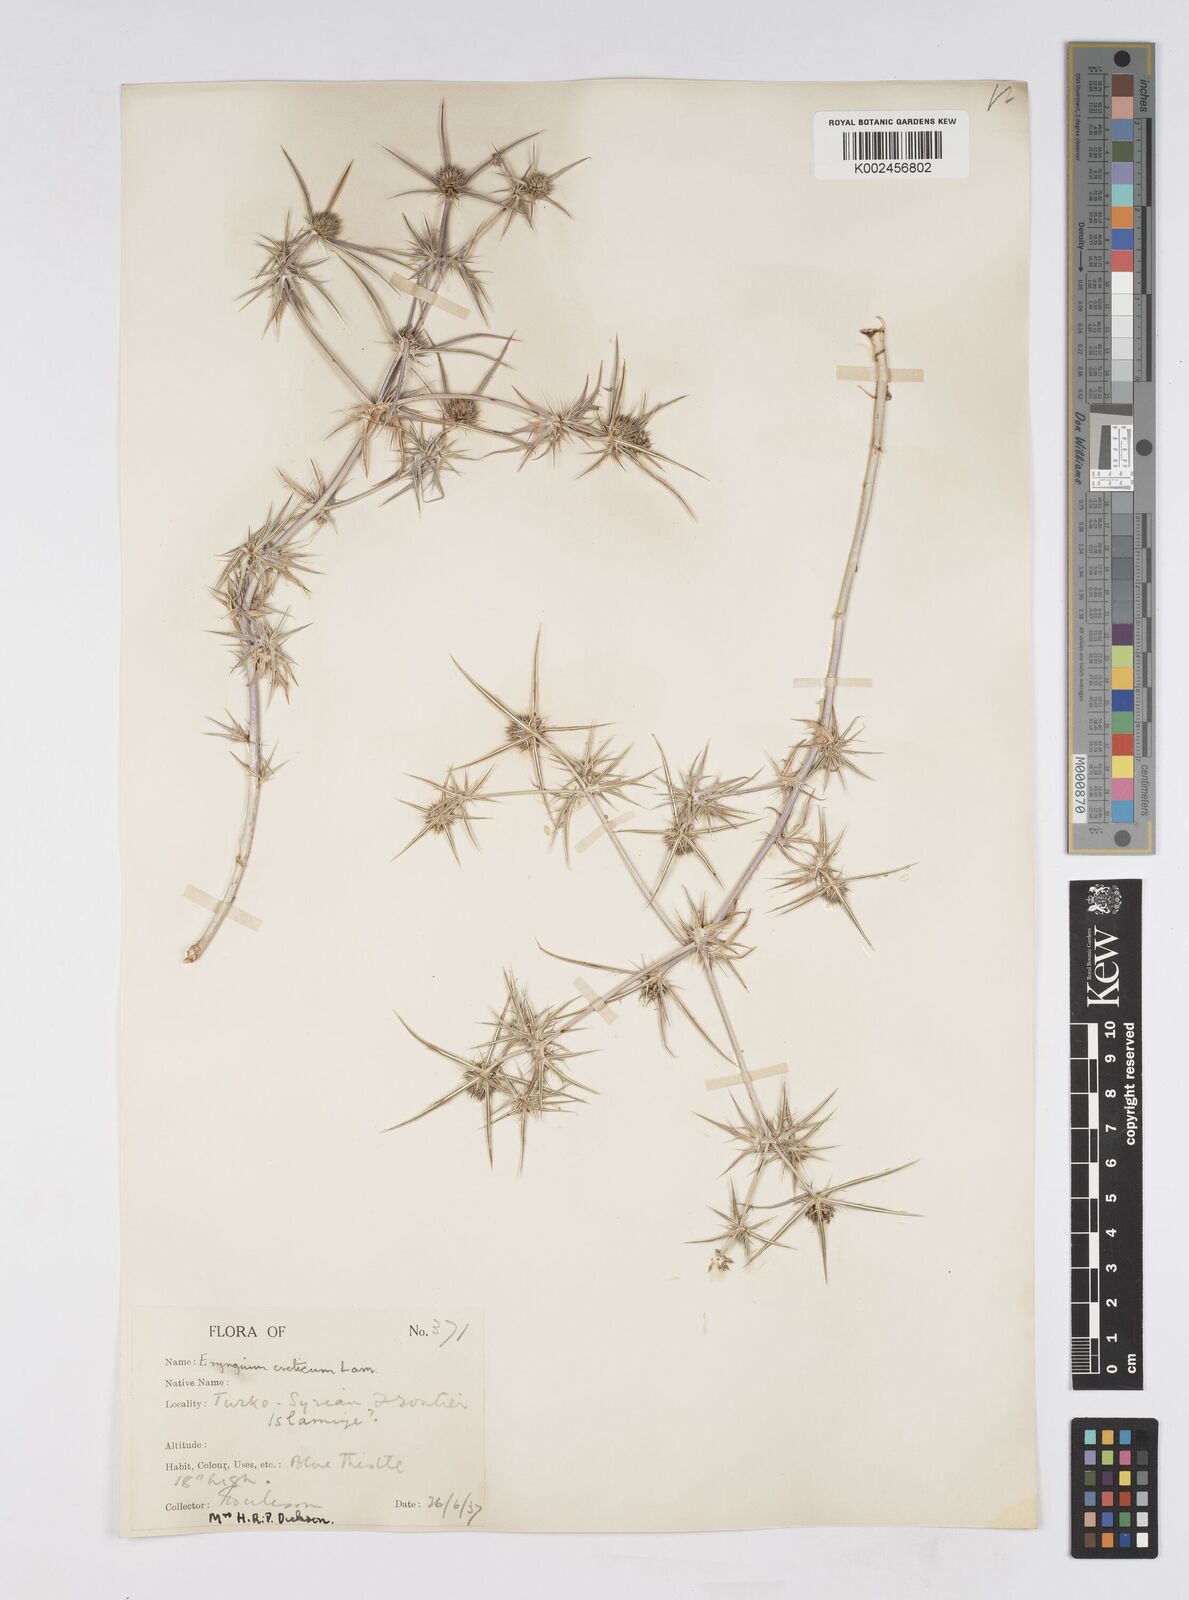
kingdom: Plantae
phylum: Tracheophyta
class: Magnoliopsida
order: Apiales
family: Apiaceae
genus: Eryngium
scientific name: Eryngium creticum
